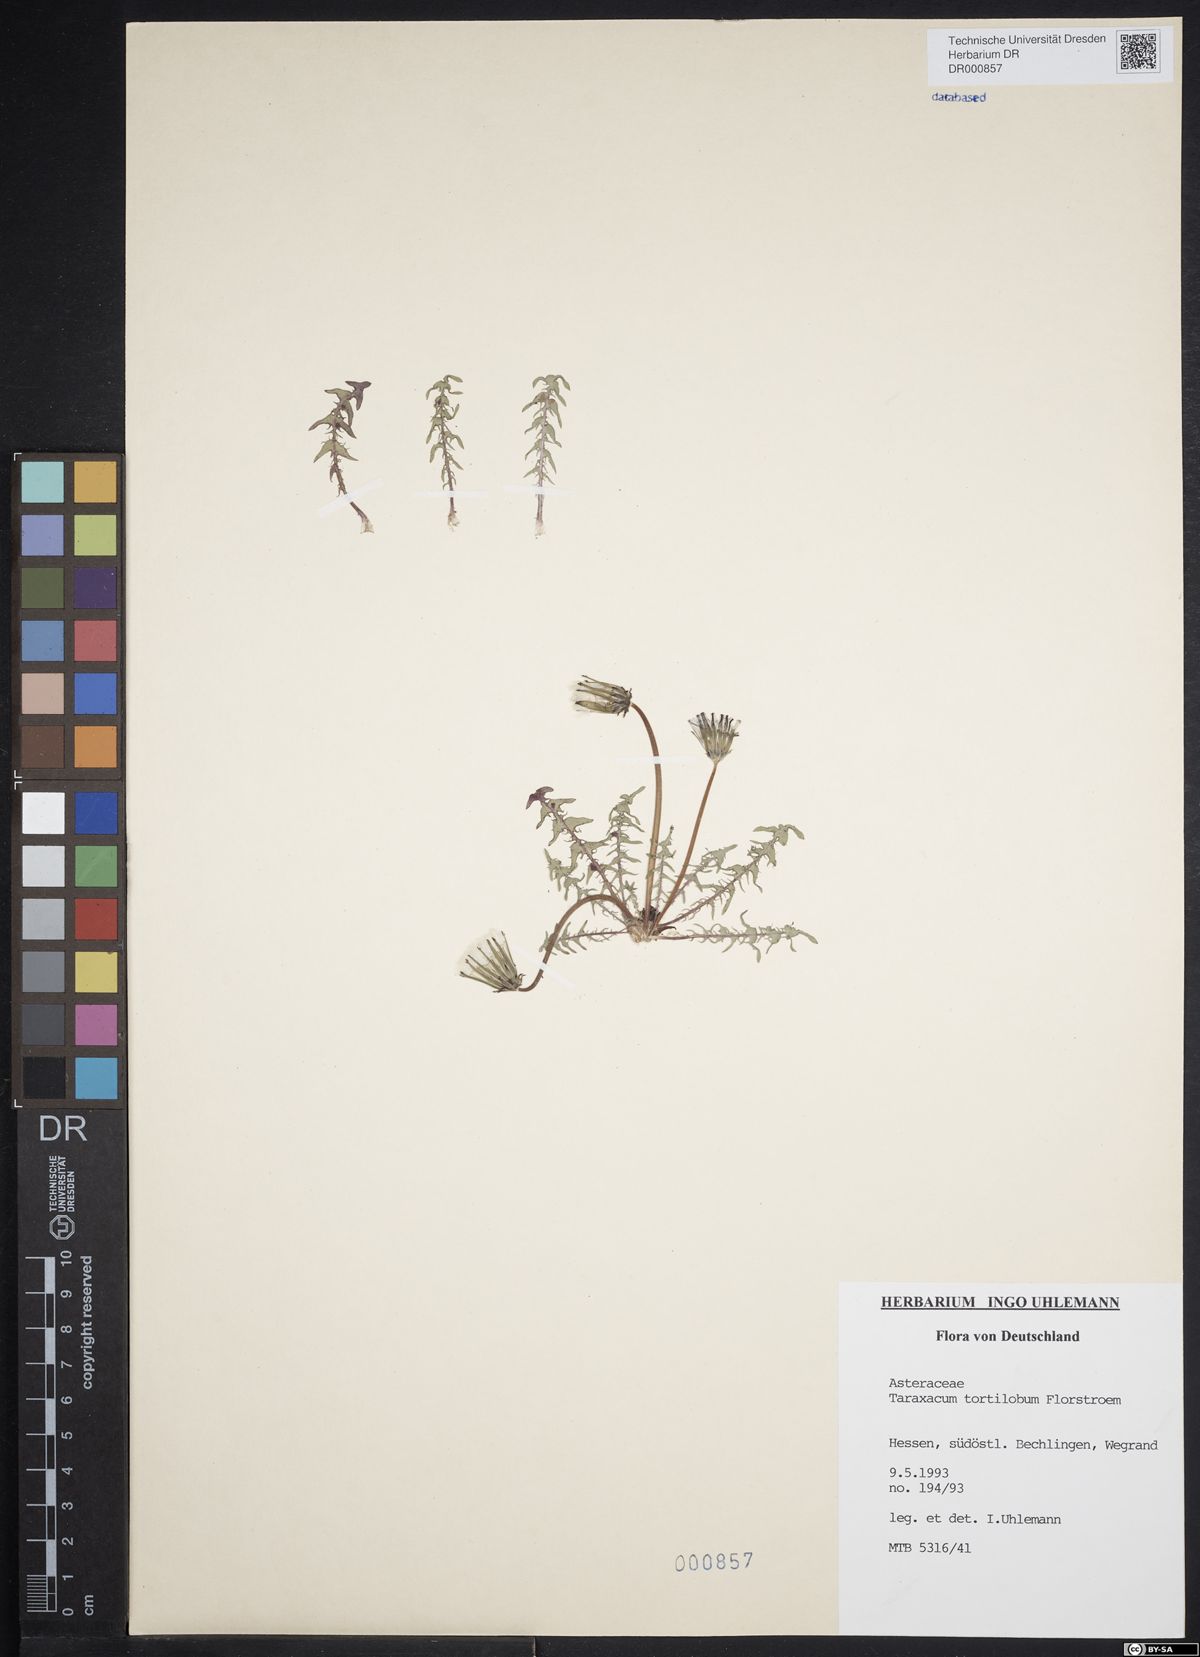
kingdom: Plantae
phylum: Tracheophyta
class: Magnoliopsida
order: Asterales
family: Asteraceae
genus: Taraxacum
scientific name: Taraxacum tortilobum
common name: Twisted-lobed dandelion
